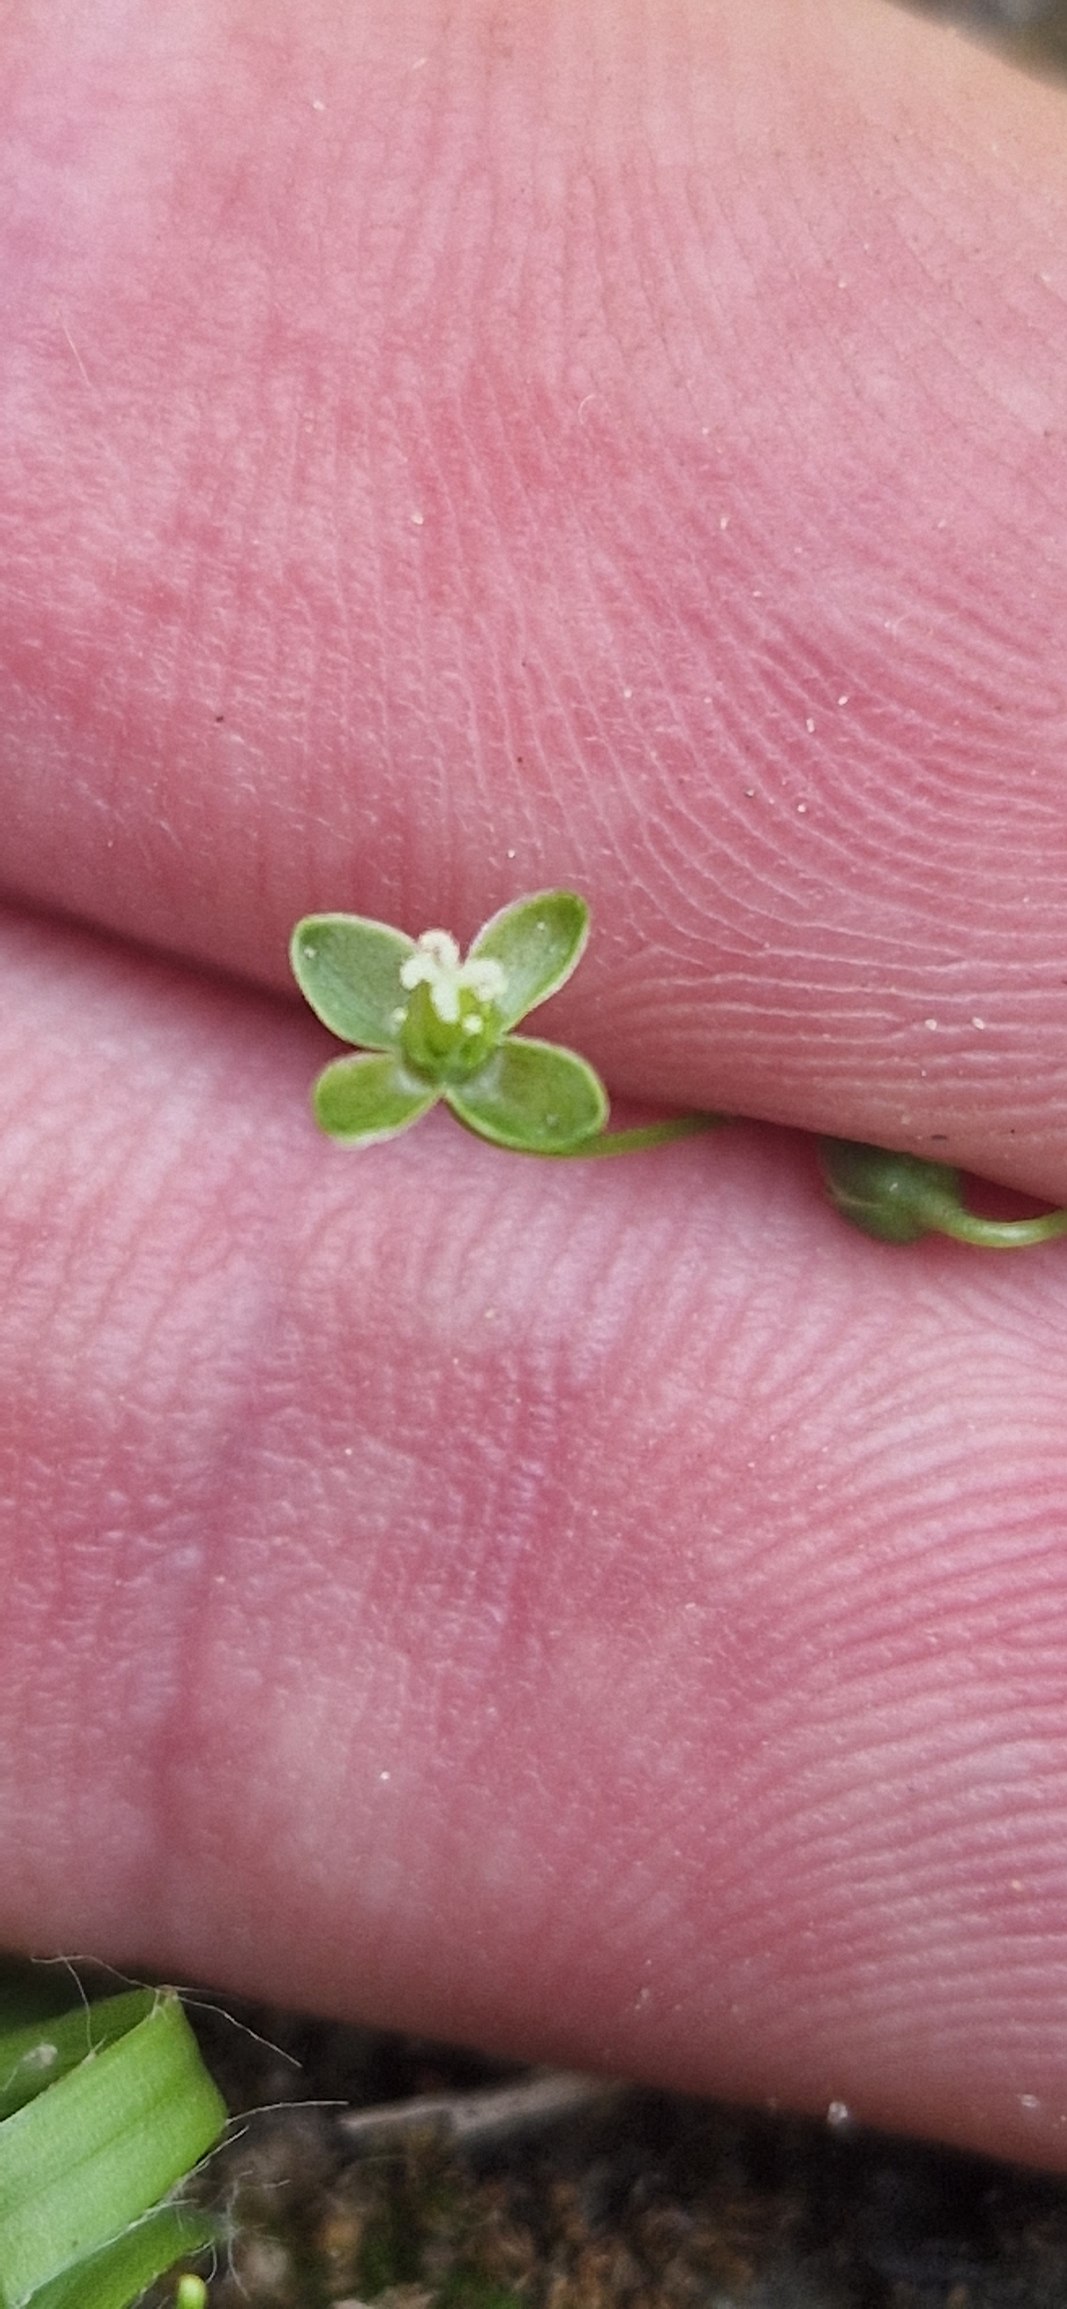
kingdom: Plantae
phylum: Tracheophyta
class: Magnoliopsida
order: Caryophyllales
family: Caryophyllaceae
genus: Sagina
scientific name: Sagina procumbens
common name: Almindelig firling
